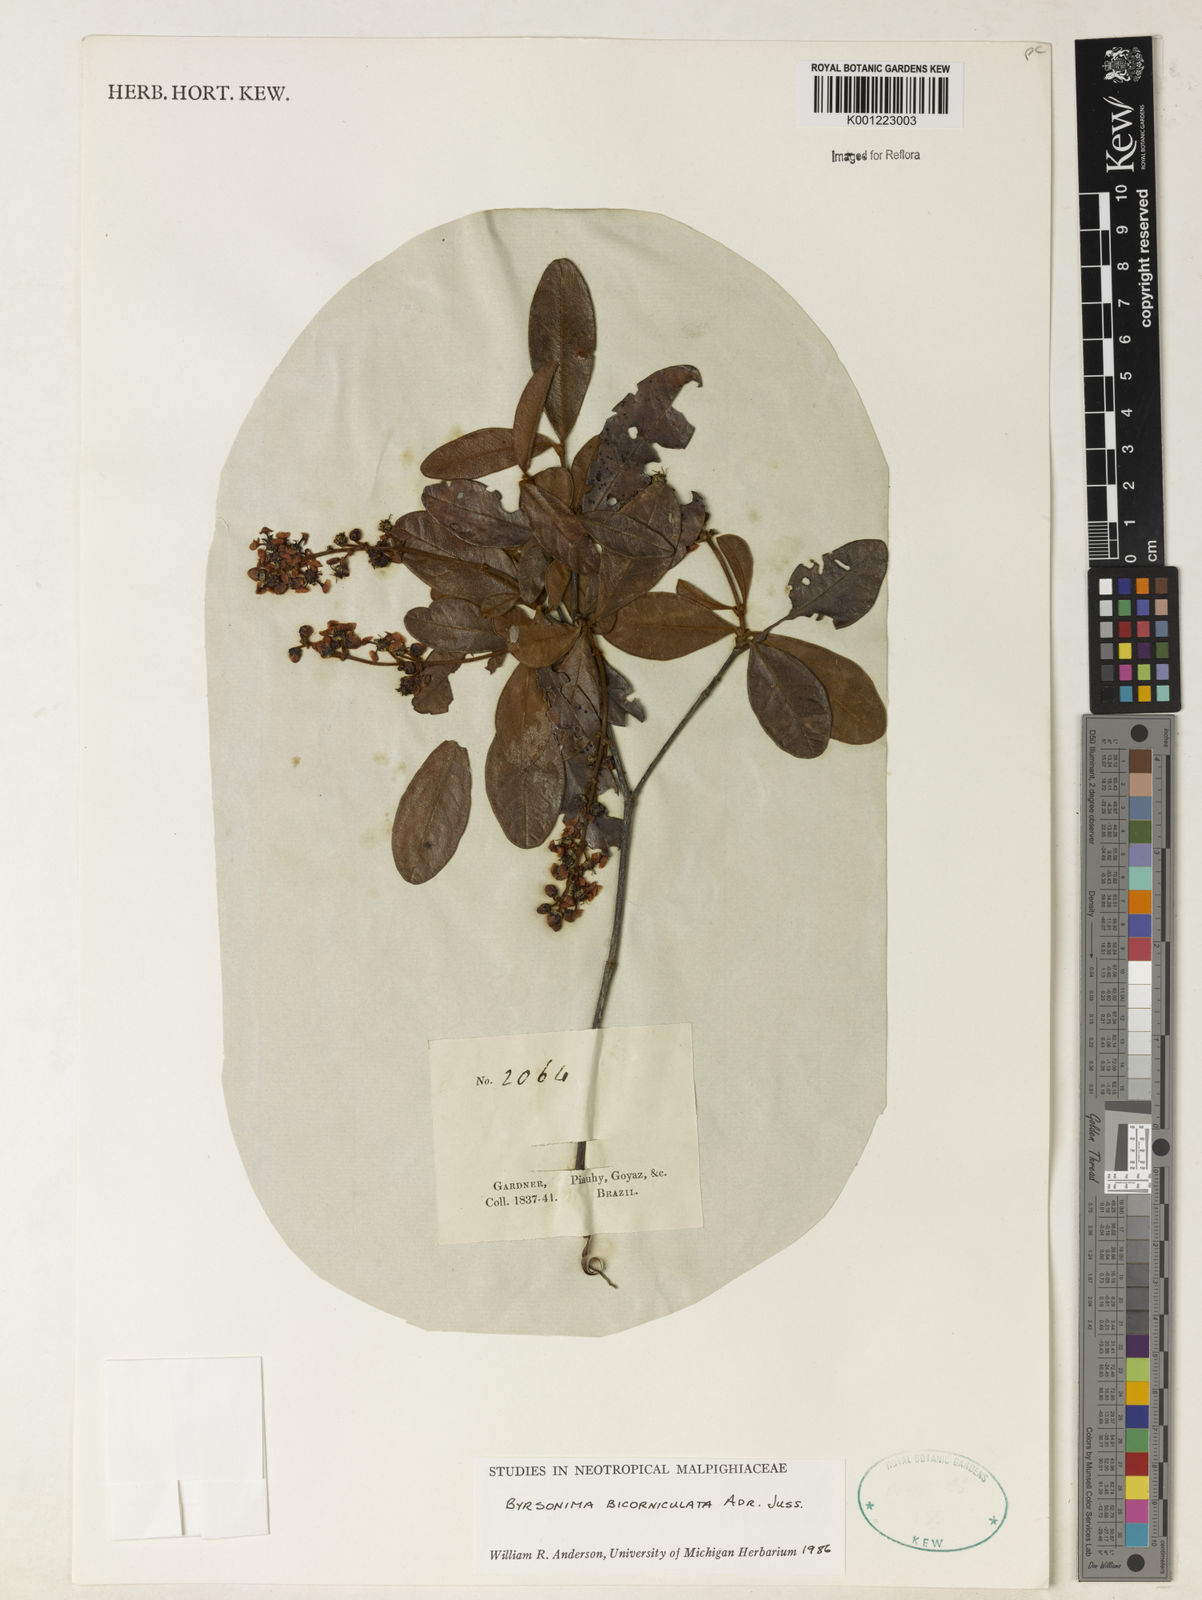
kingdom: Plantae
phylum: Tracheophyta
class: Magnoliopsida
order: Malpighiales
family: Malpighiaceae
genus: Byrsonima
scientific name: Byrsonima bicorniculata
